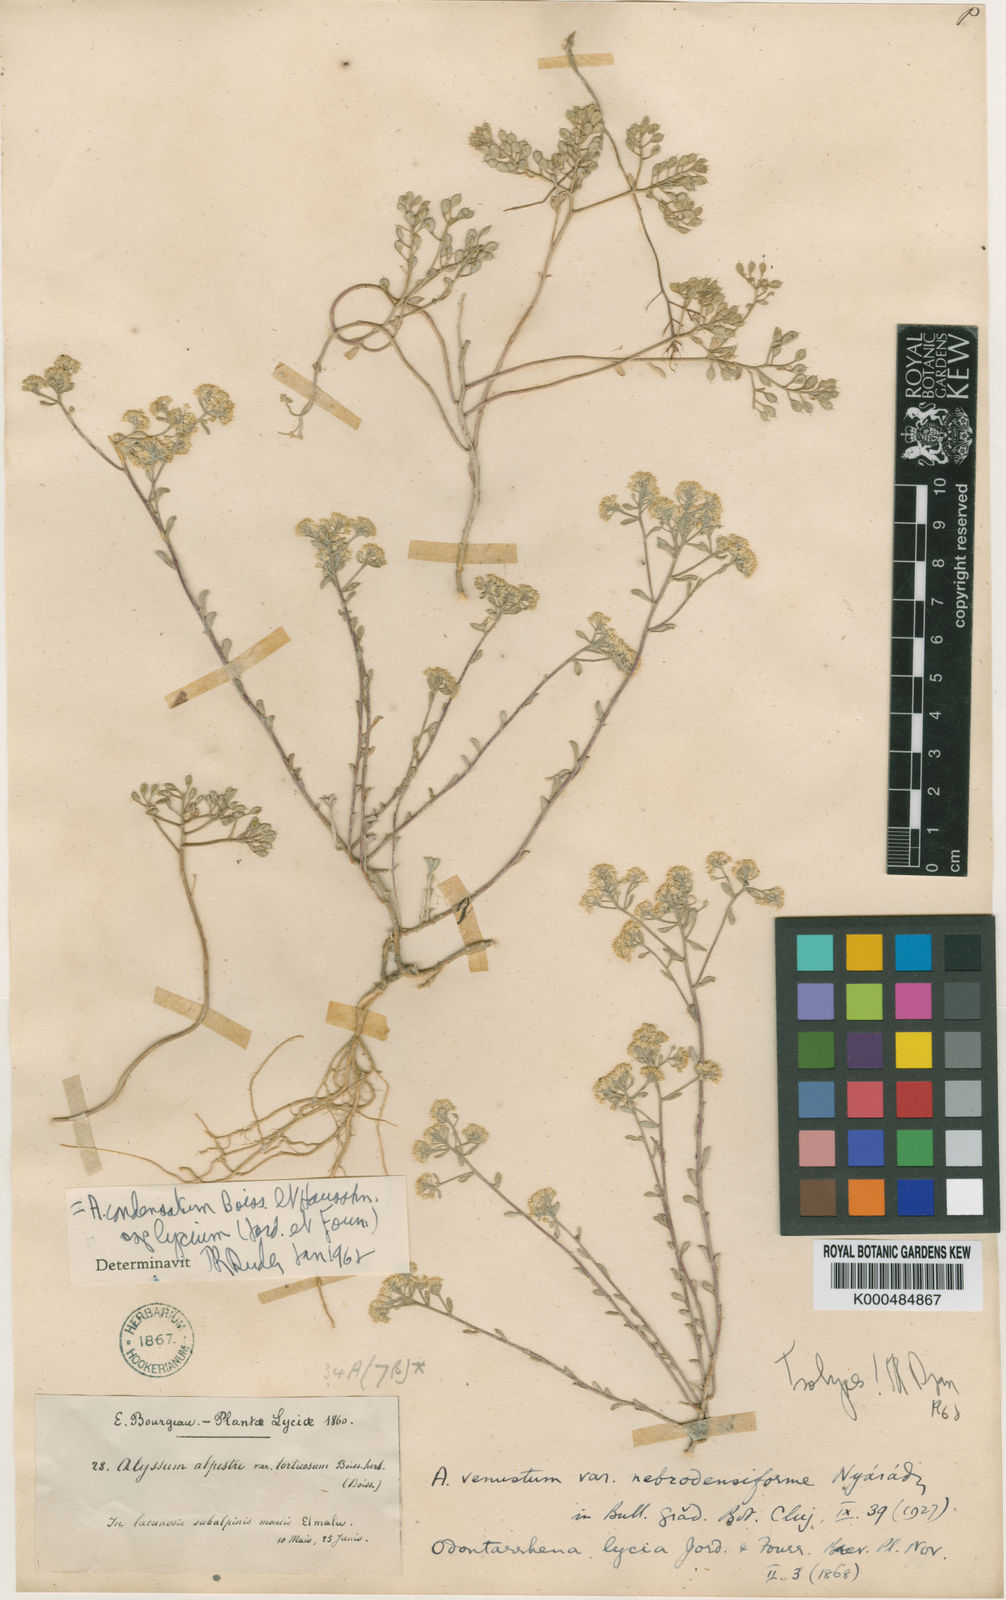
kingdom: Plantae
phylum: Tracheophyta
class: Magnoliopsida
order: Brassicales
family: Brassicaceae
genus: Odontarrhena
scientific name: Odontarrhena condensata
